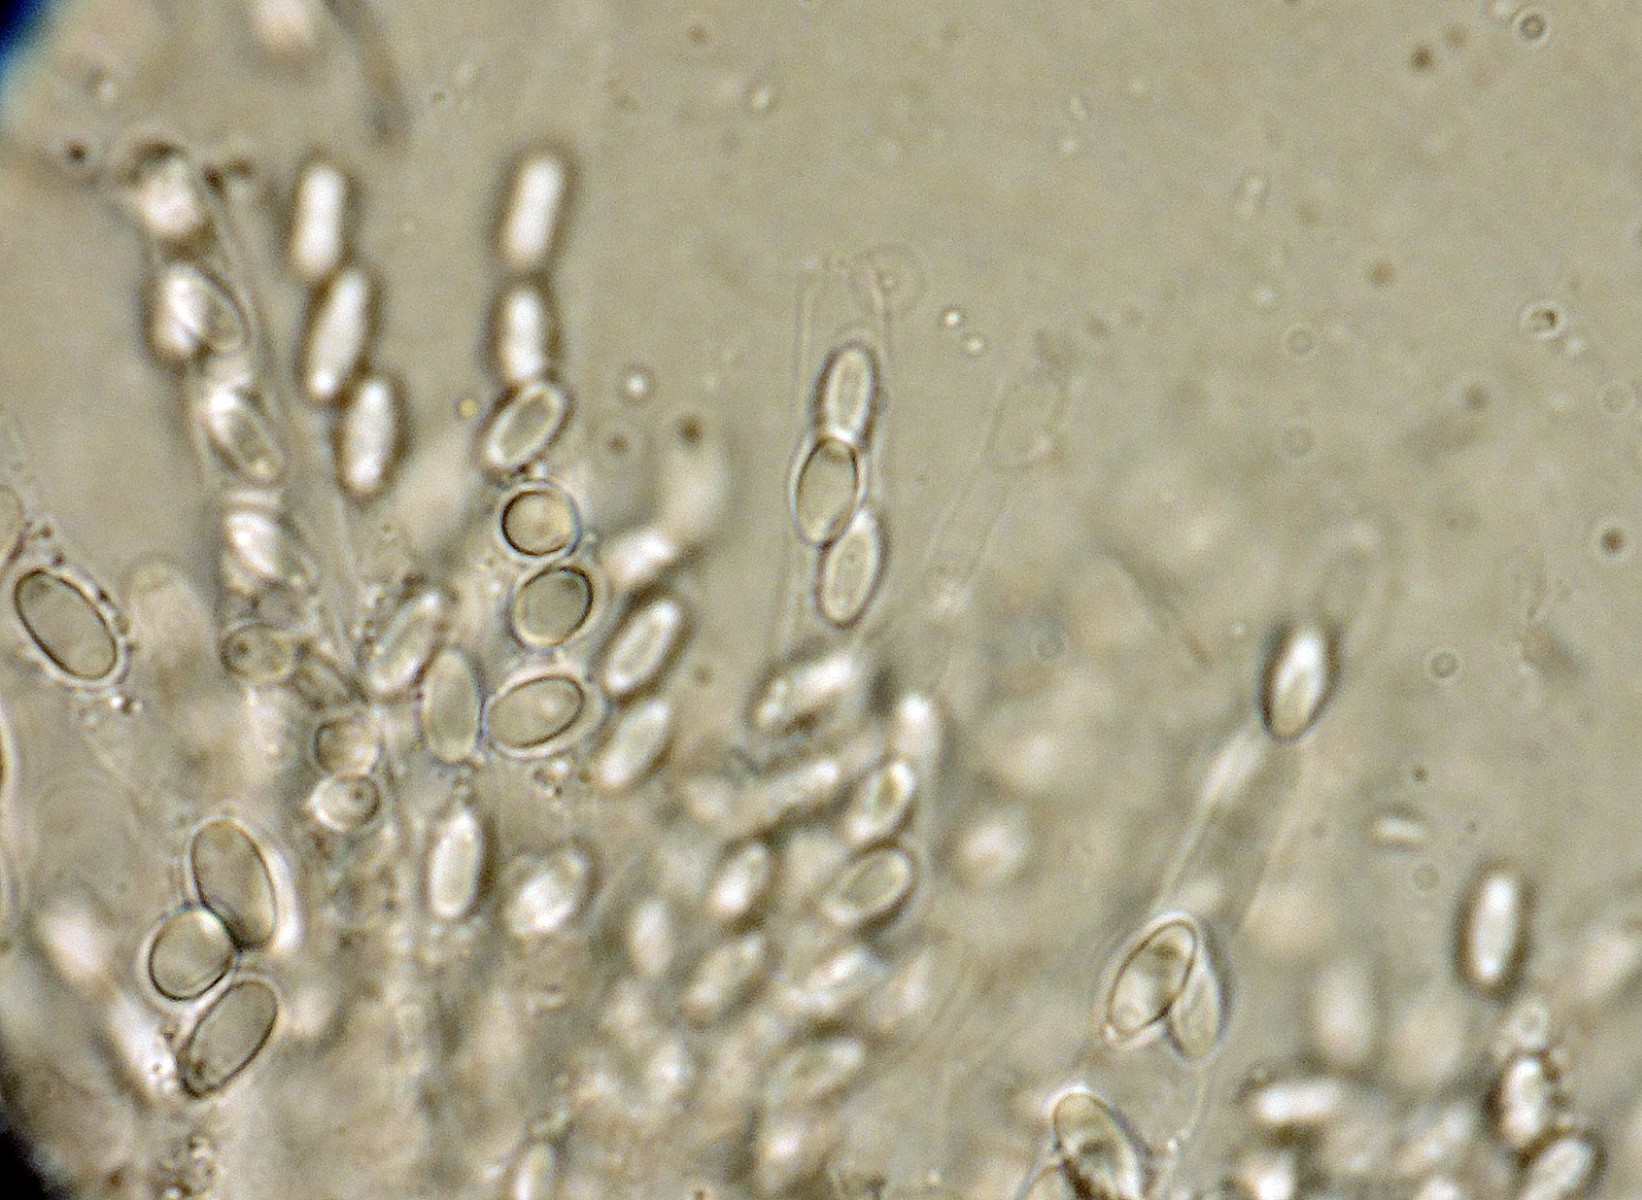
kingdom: Fungi
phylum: Ascomycota
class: Sordariomycetes
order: Phomatosporales
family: Phomatosporaceae
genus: Phomatospora
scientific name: Phomatospora hyalina
